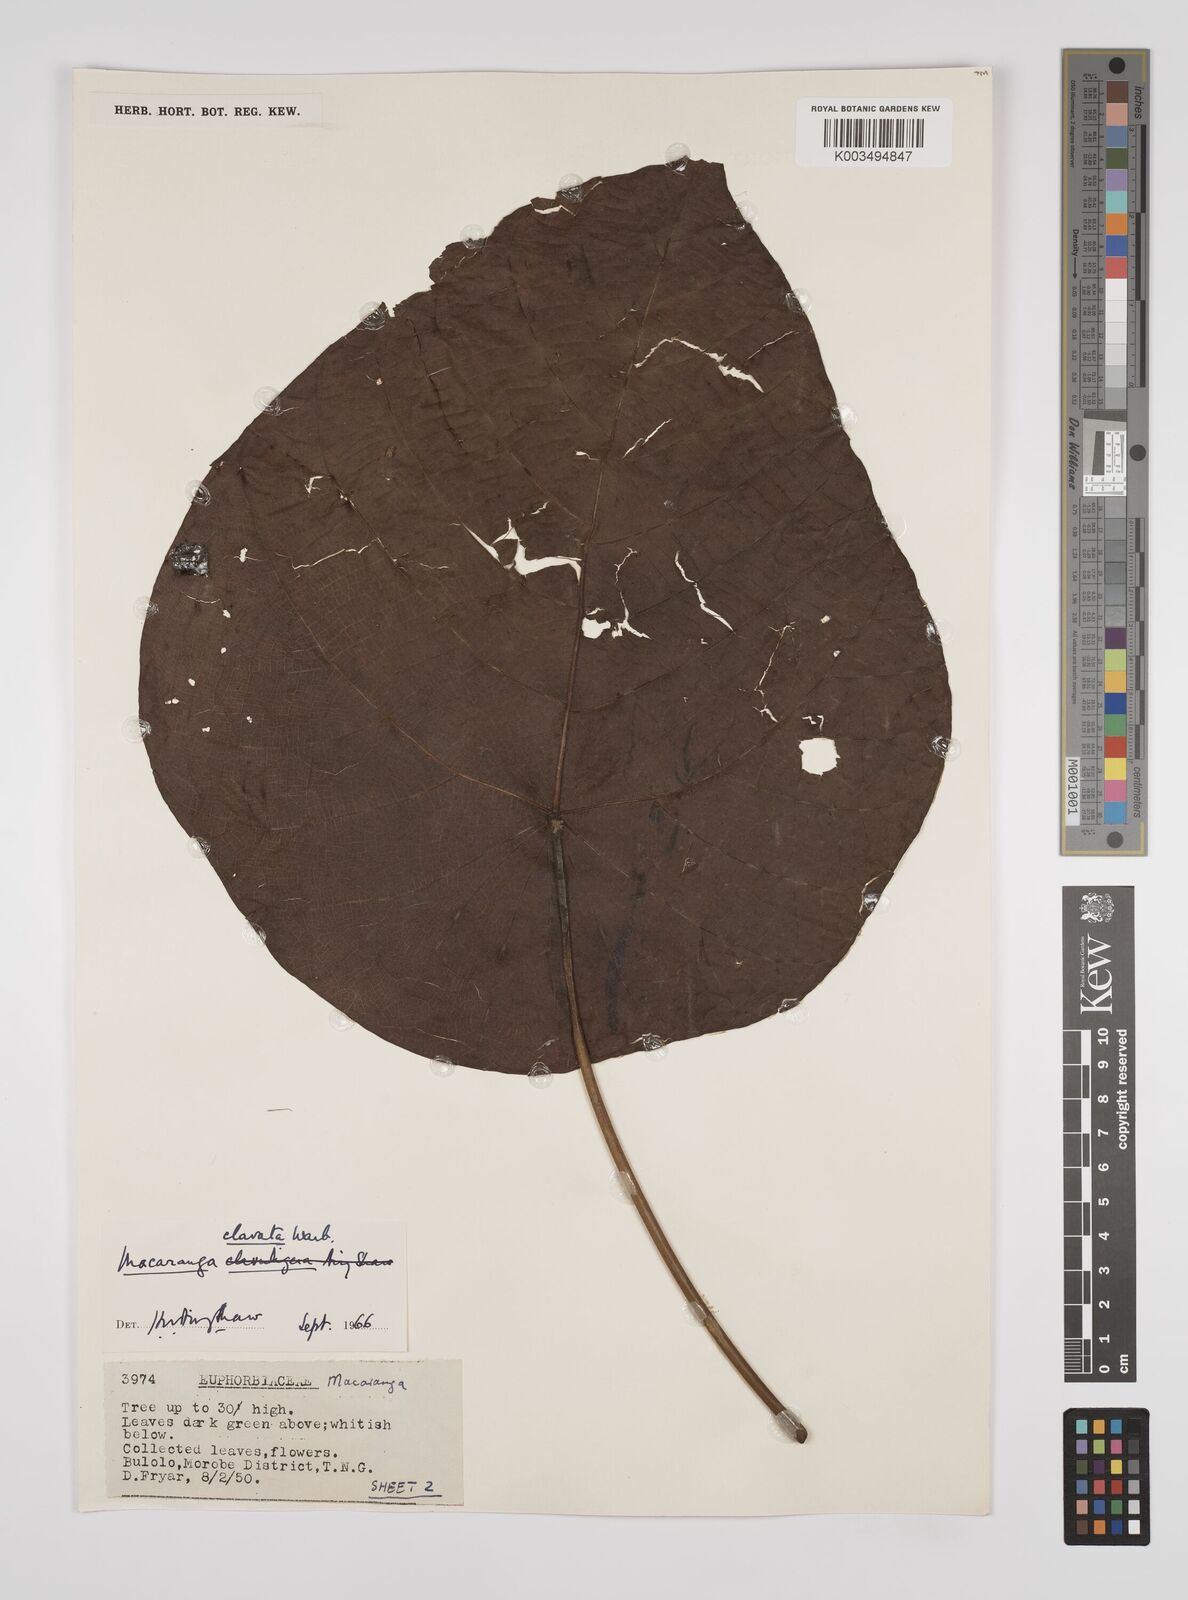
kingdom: Plantae
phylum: Tracheophyta
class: Magnoliopsida
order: Malpighiales
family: Euphorbiaceae
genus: Macaranga
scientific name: Macaranga clavata
